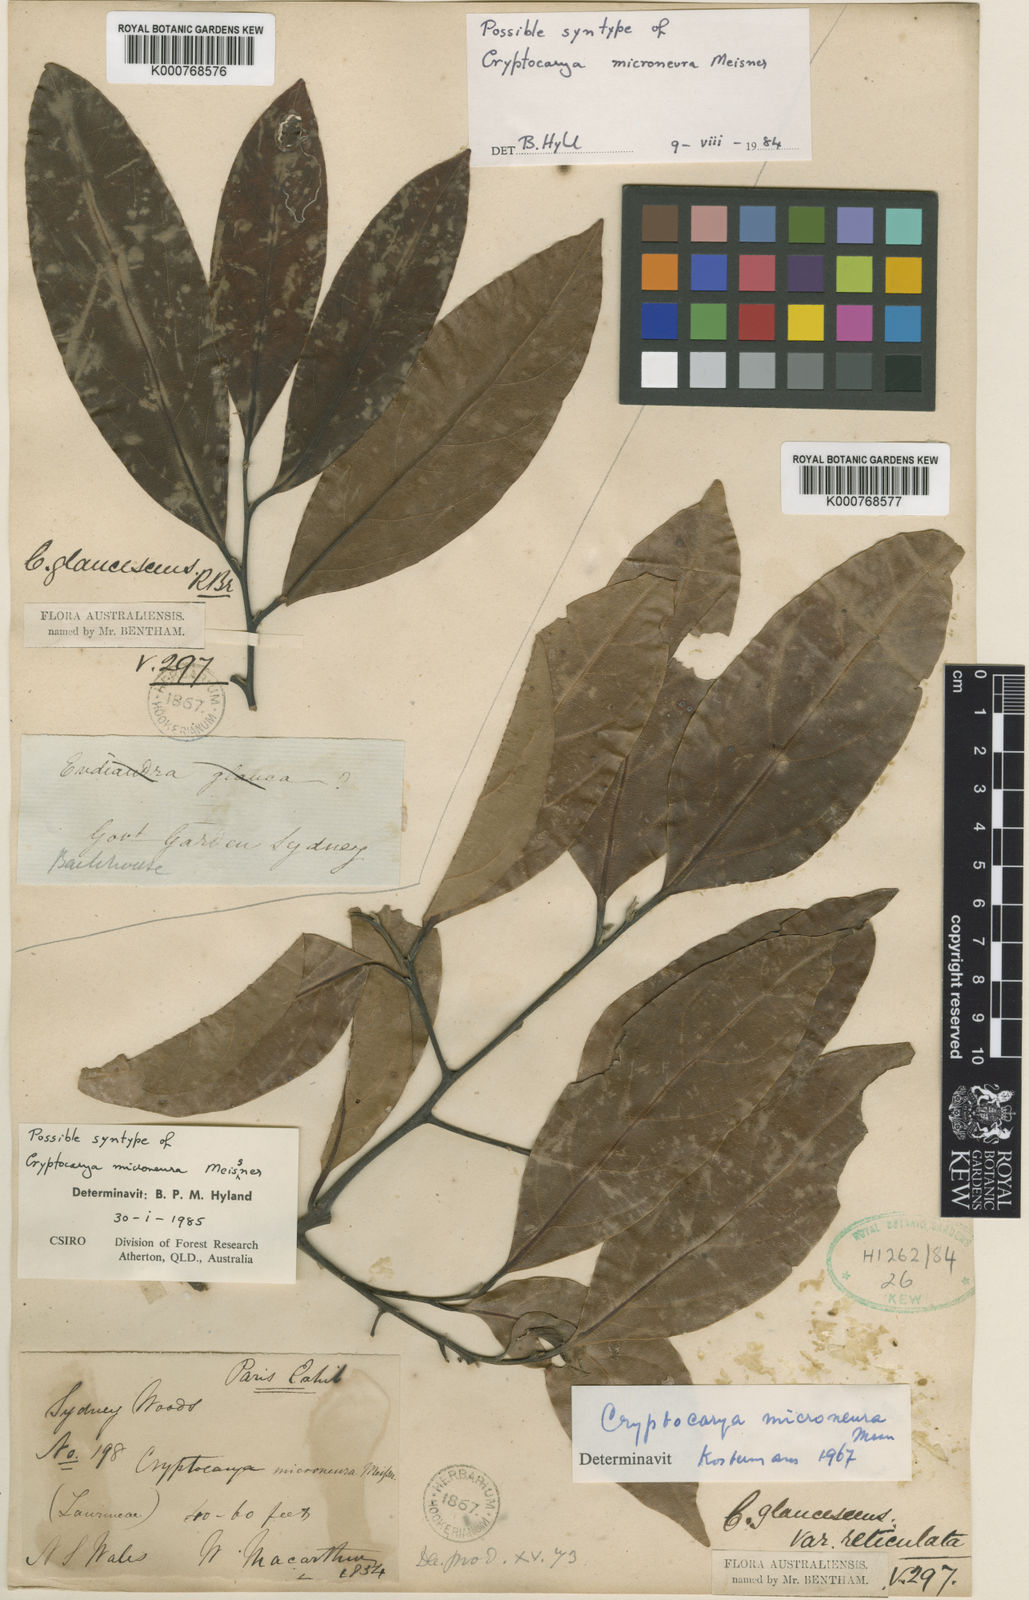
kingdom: Plantae
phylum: Tracheophyta
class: Magnoliopsida
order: Laurales
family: Lauraceae
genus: Cryptocarya
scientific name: Cryptocarya microneura
